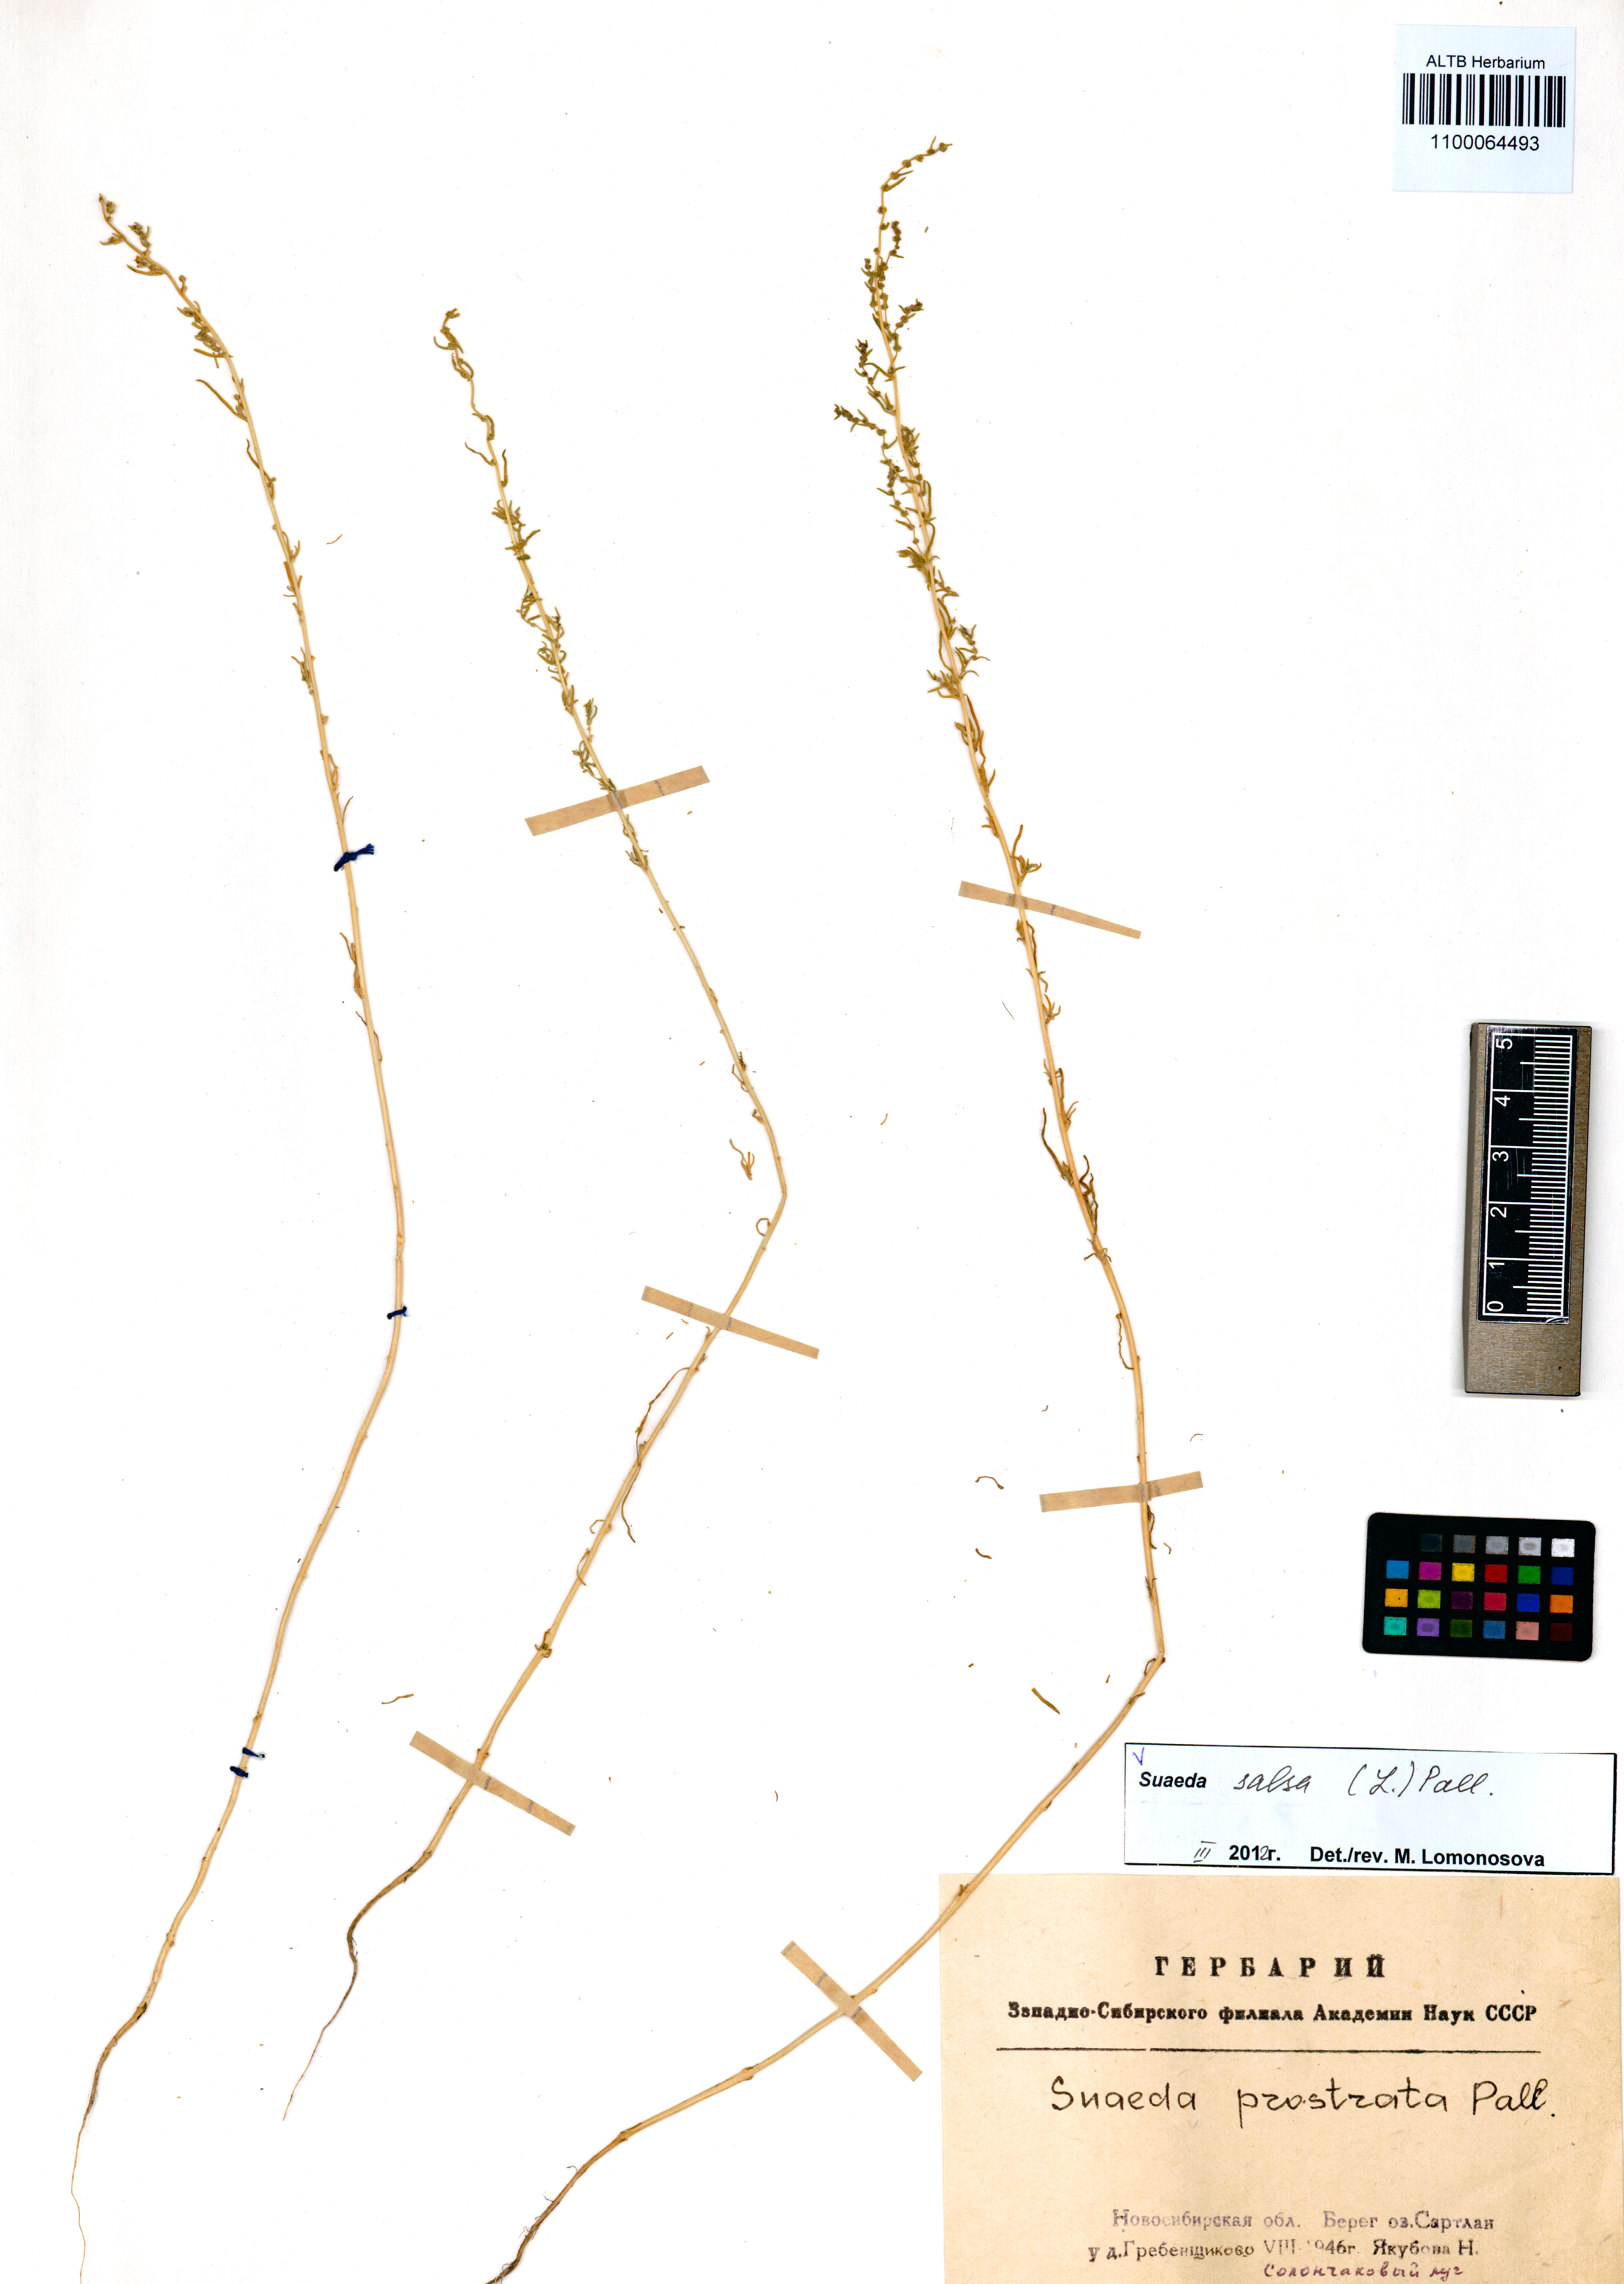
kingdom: Plantae
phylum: Tracheophyta
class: Magnoliopsida
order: Caryophyllales
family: Amaranthaceae
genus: Suaeda
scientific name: Suaeda salsa
